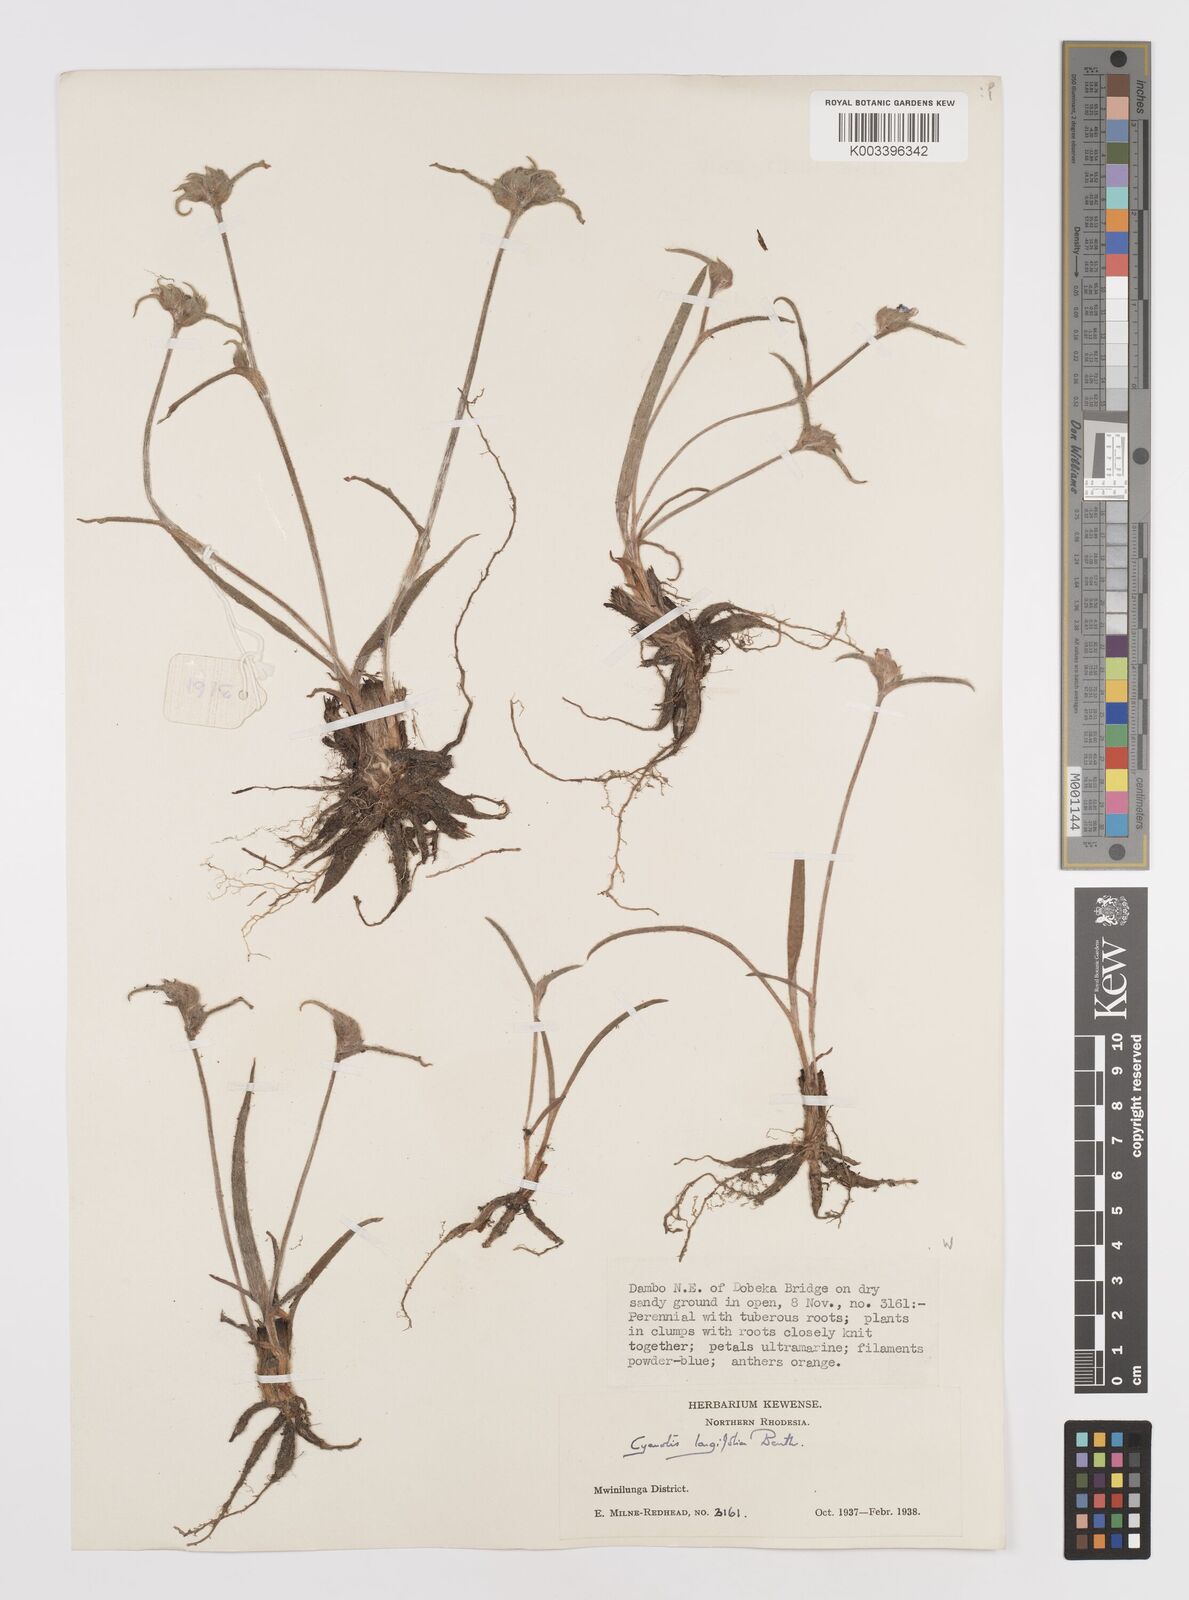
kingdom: Plantae
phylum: Tracheophyta
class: Liliopsida
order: Commelinales
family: Commelinaceae
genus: Cyanotis
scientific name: Cyanotis longifolia
